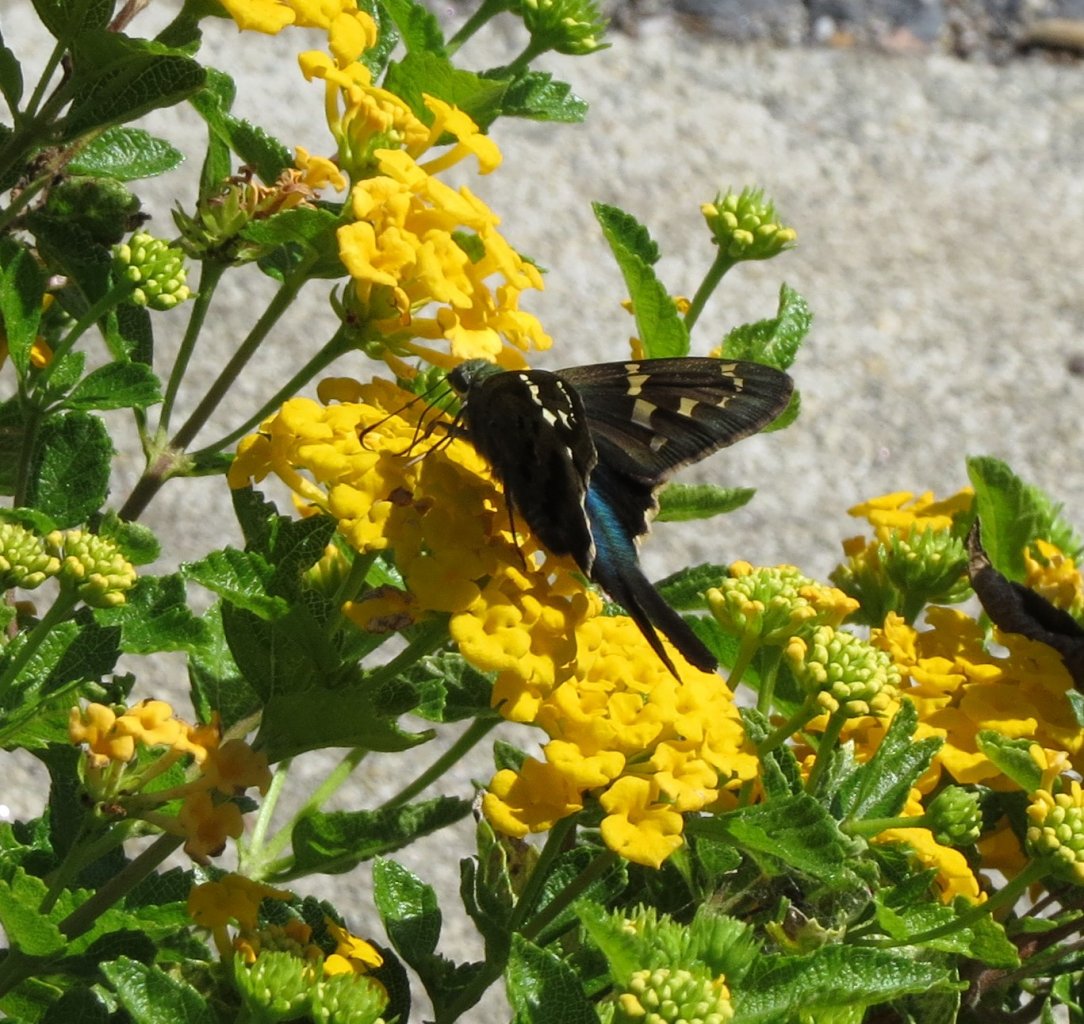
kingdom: Animalia
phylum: Arthropoda
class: Insecta
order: Lepidoptera
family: Hesperiidae
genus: Urbanus
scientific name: Urbanus proteus
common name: Long-tailed Skipper
